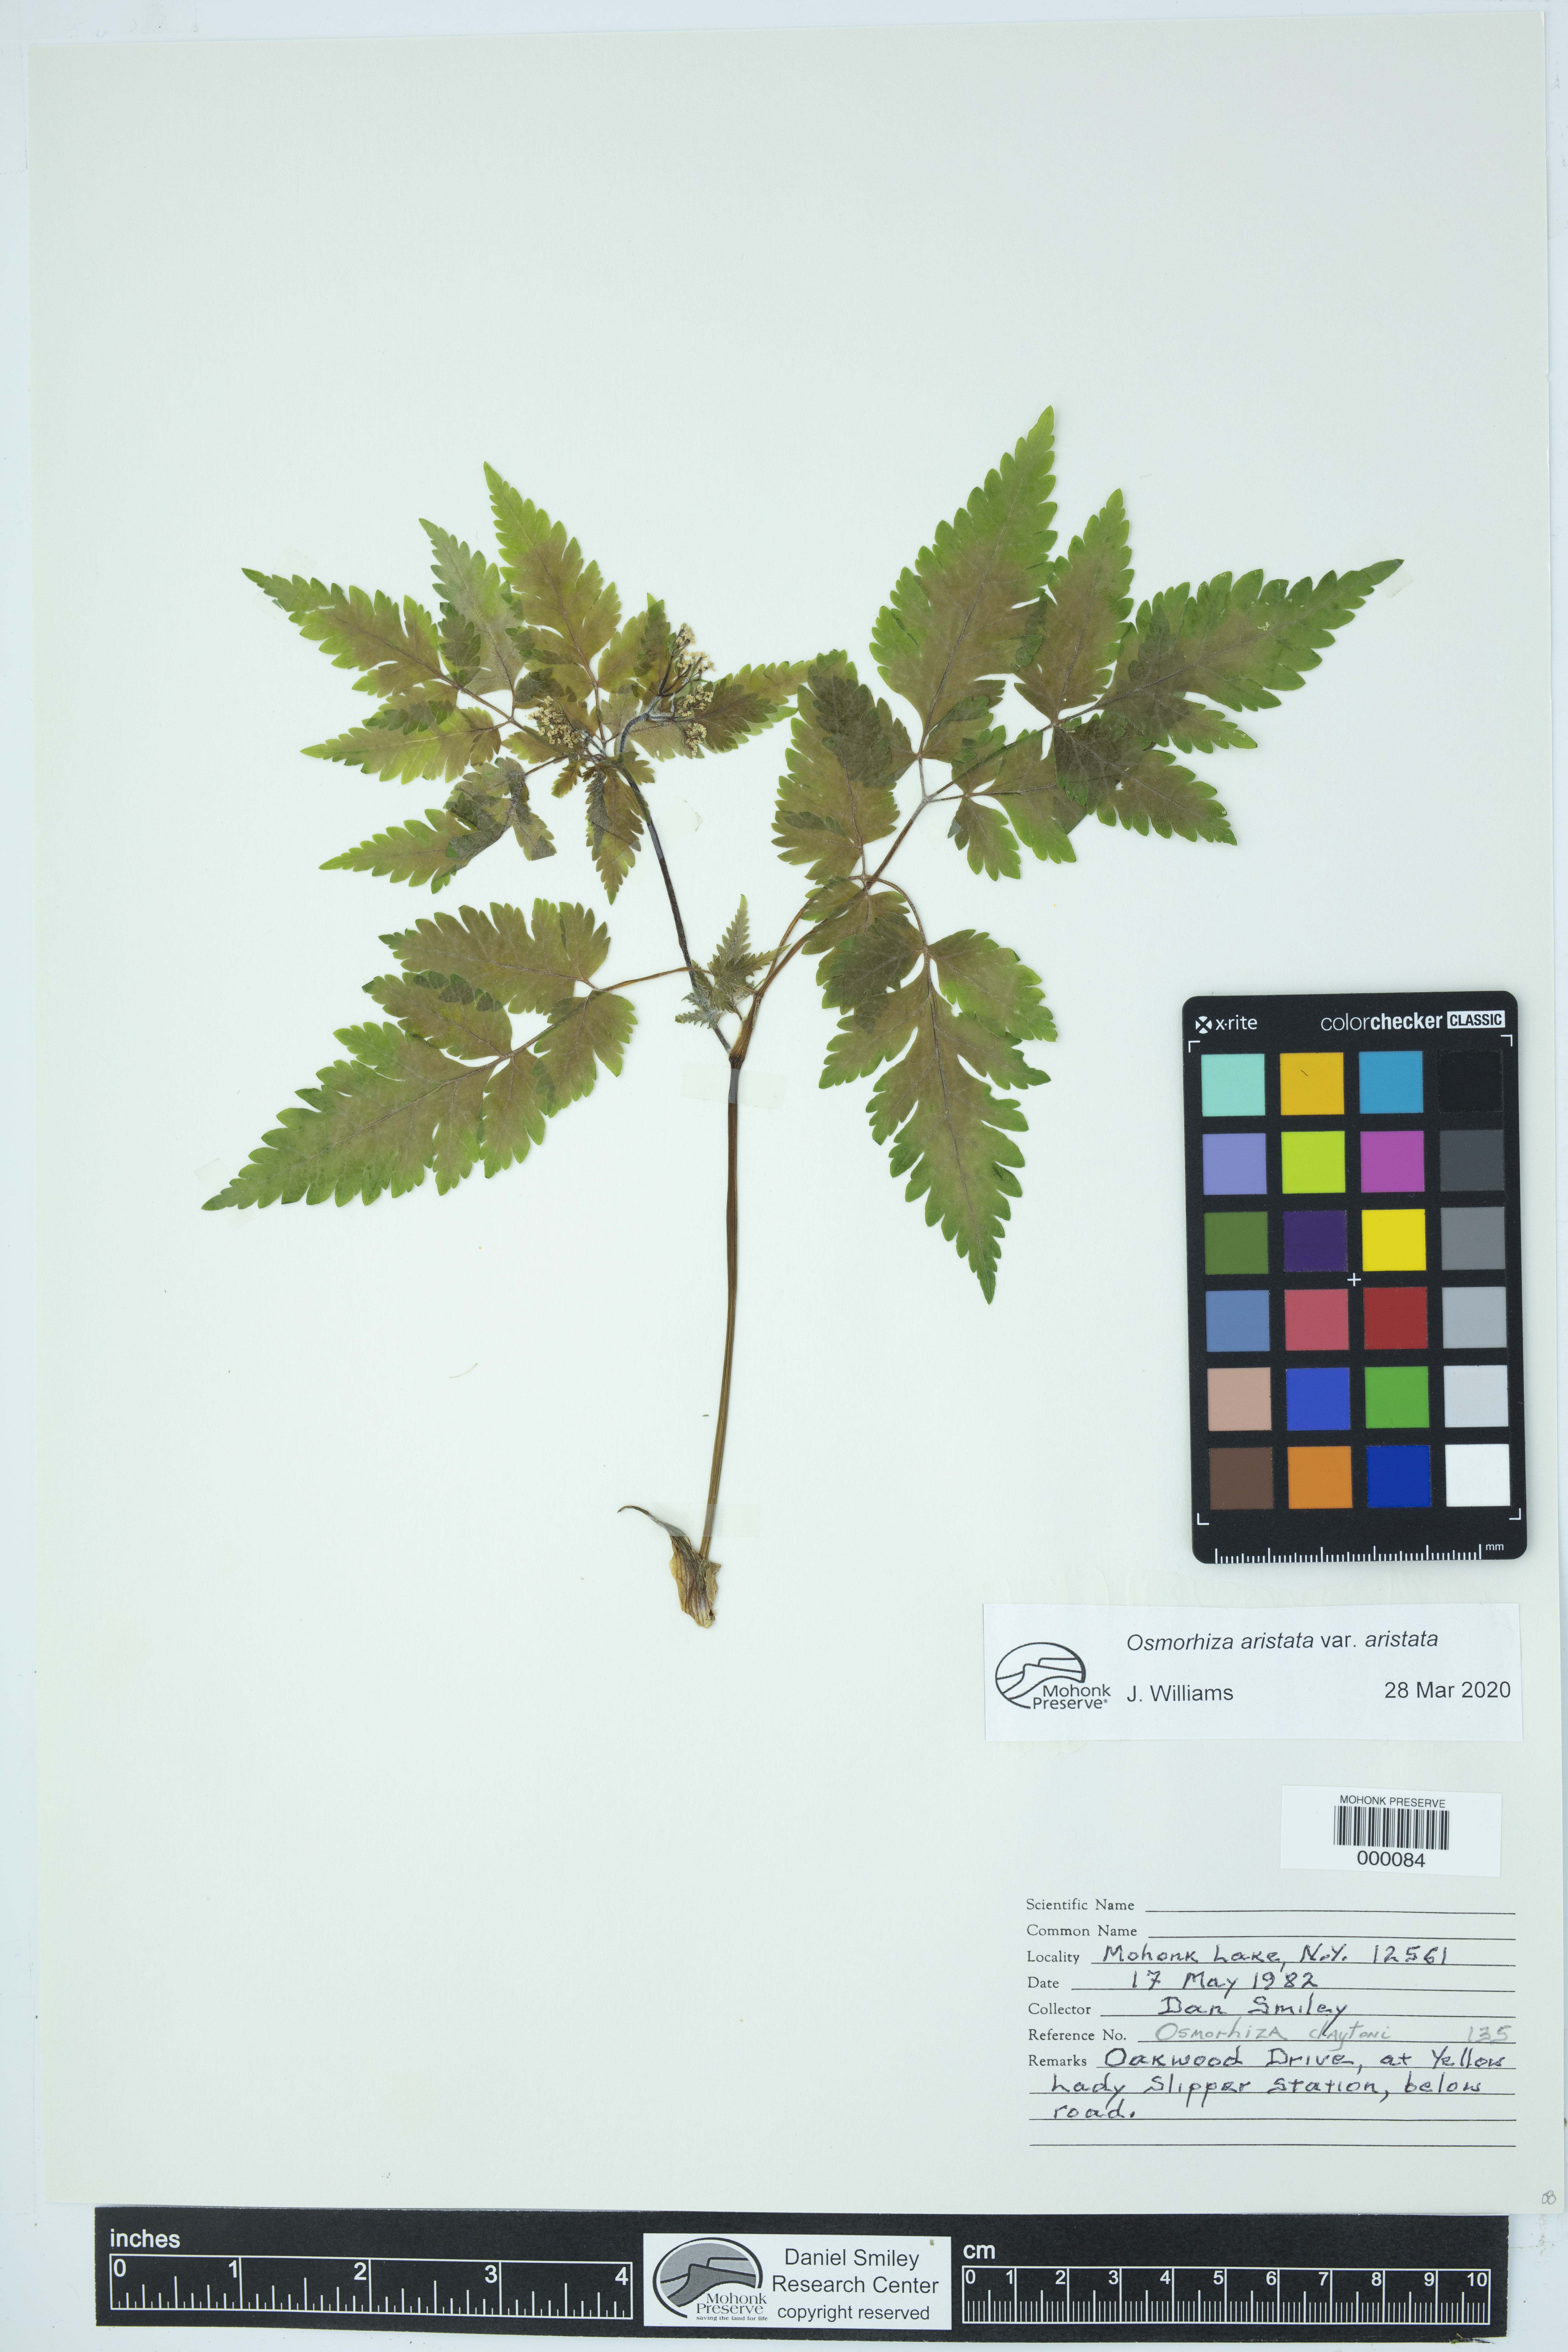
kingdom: Plantae
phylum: Tracheophyta
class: Magnoliopsida
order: Apiales
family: Apiaceae
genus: Osmorhiza
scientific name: Osmorhiza aristata
